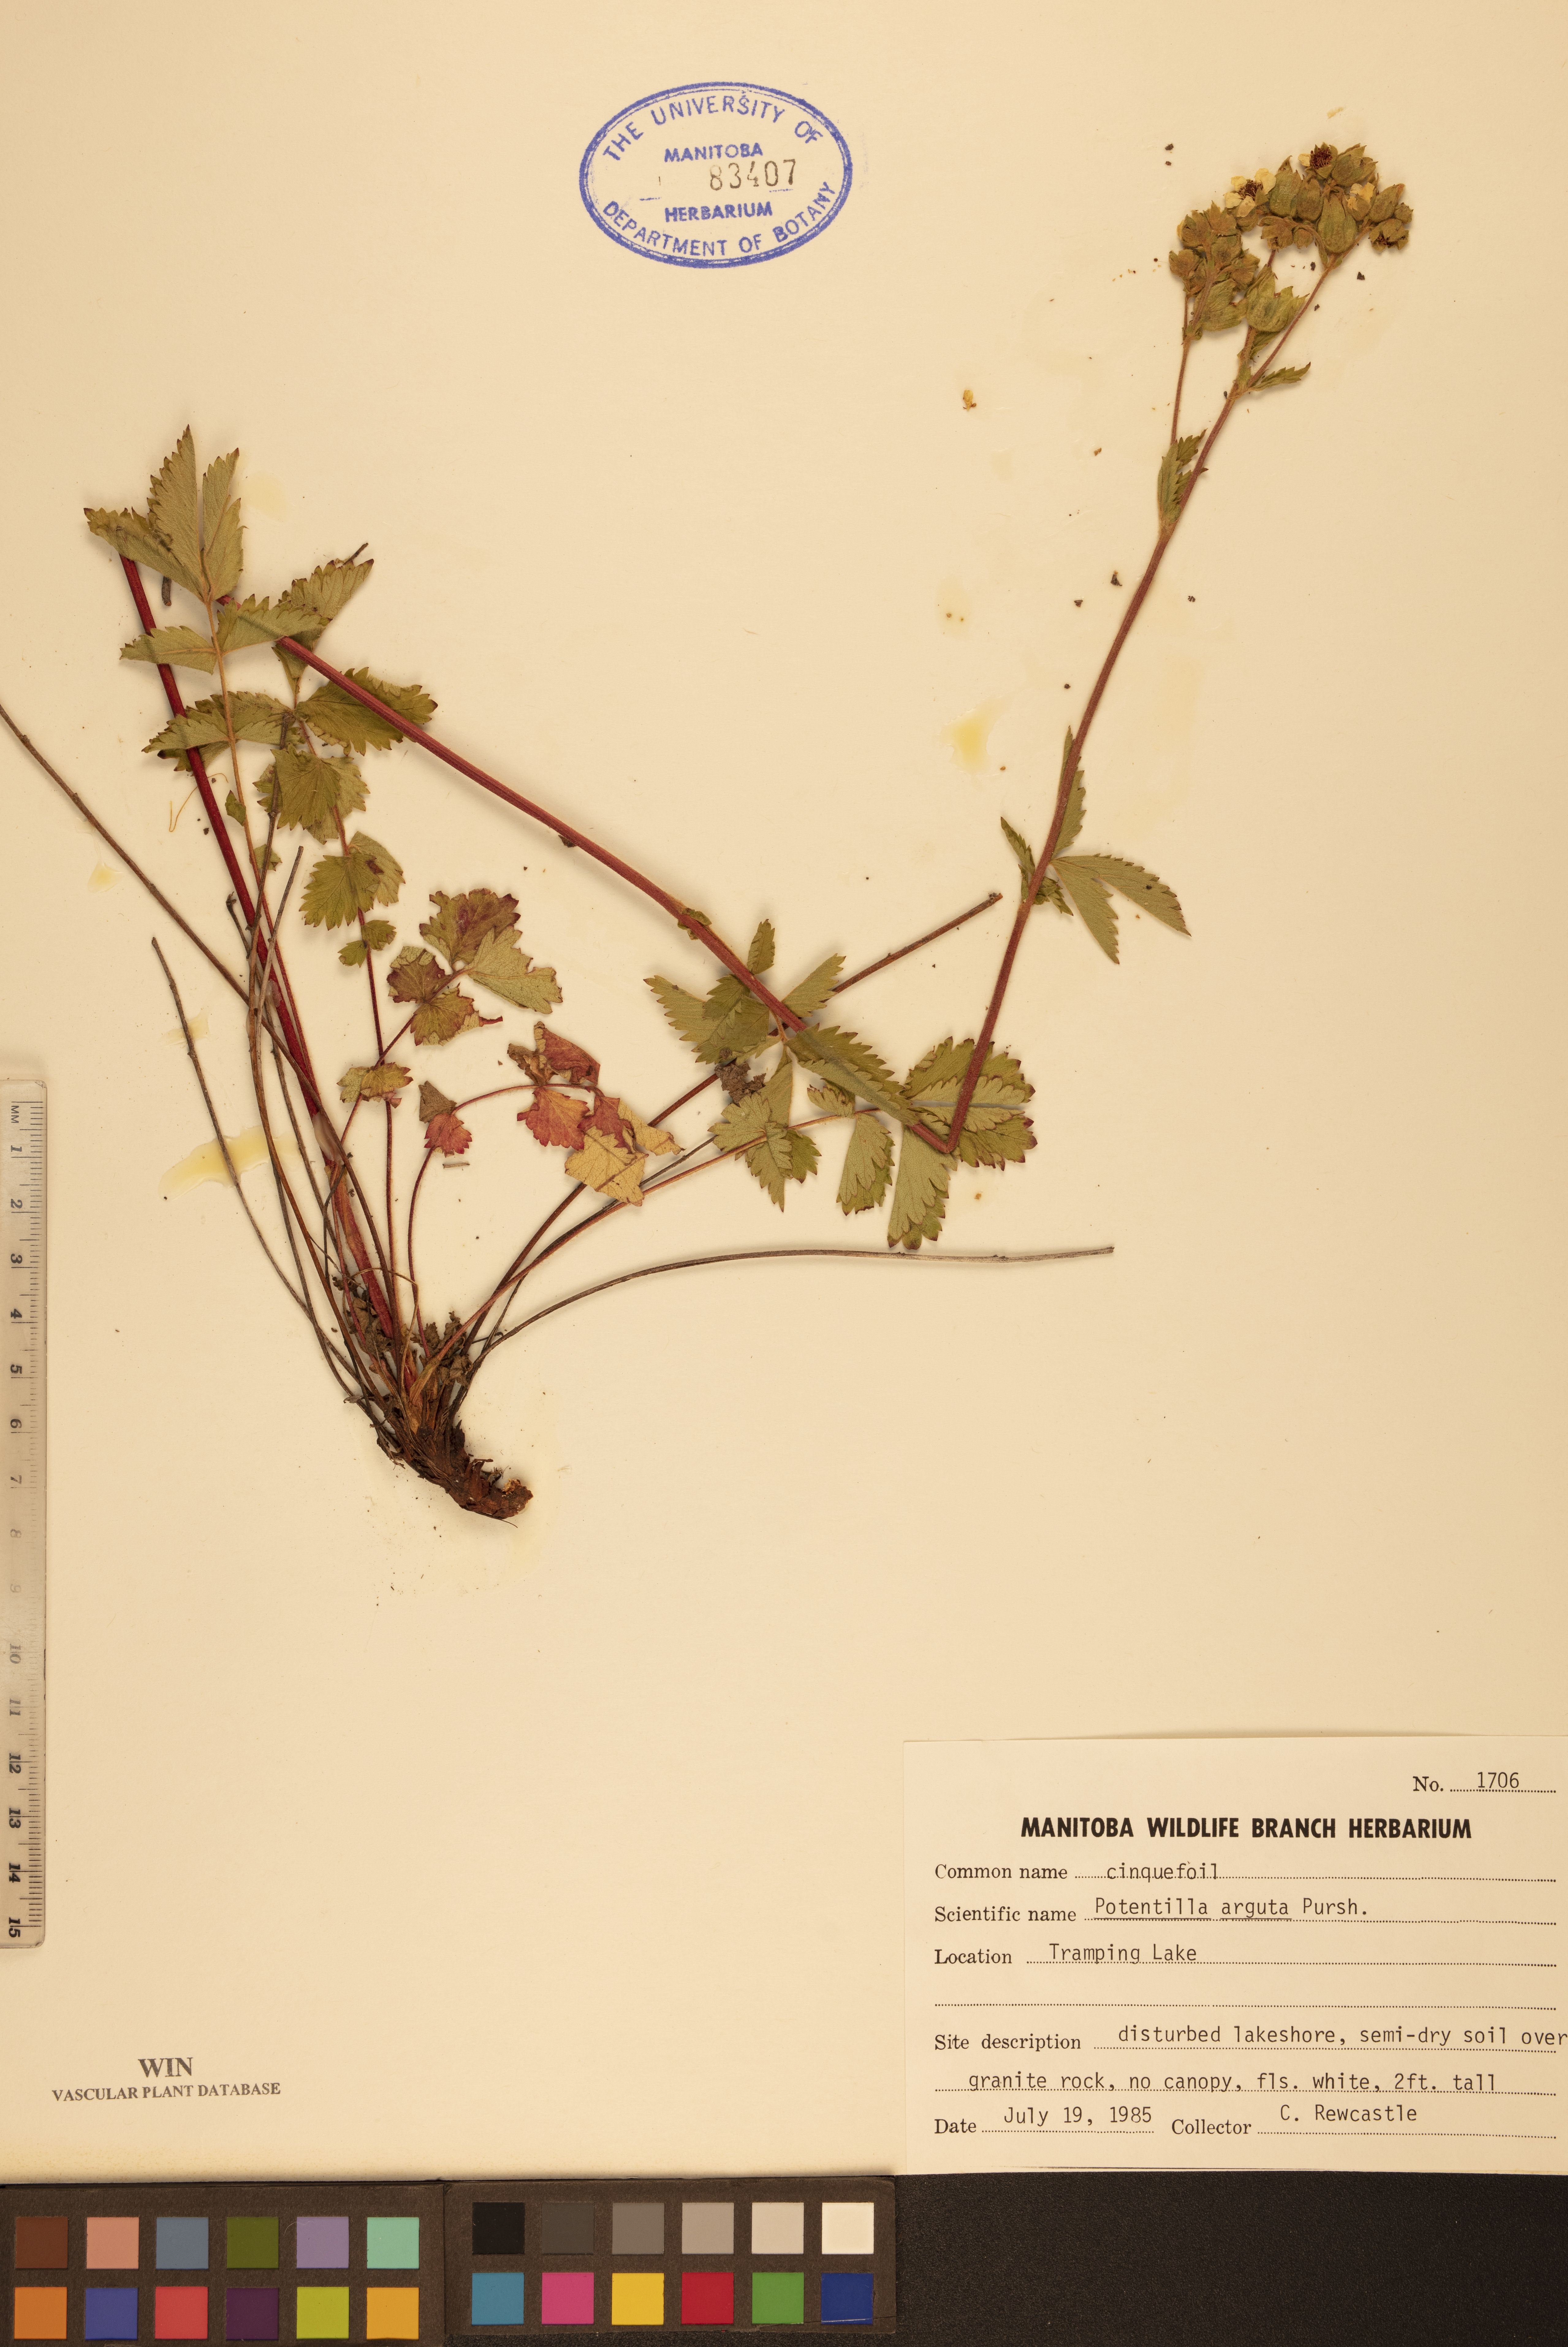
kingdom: Plantae
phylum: Tracheophyta
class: Magnoliopsida
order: Rosales
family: Rosaceae
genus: Drymocallis
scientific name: Drymocallis arguta
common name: Tall cinquefoil
